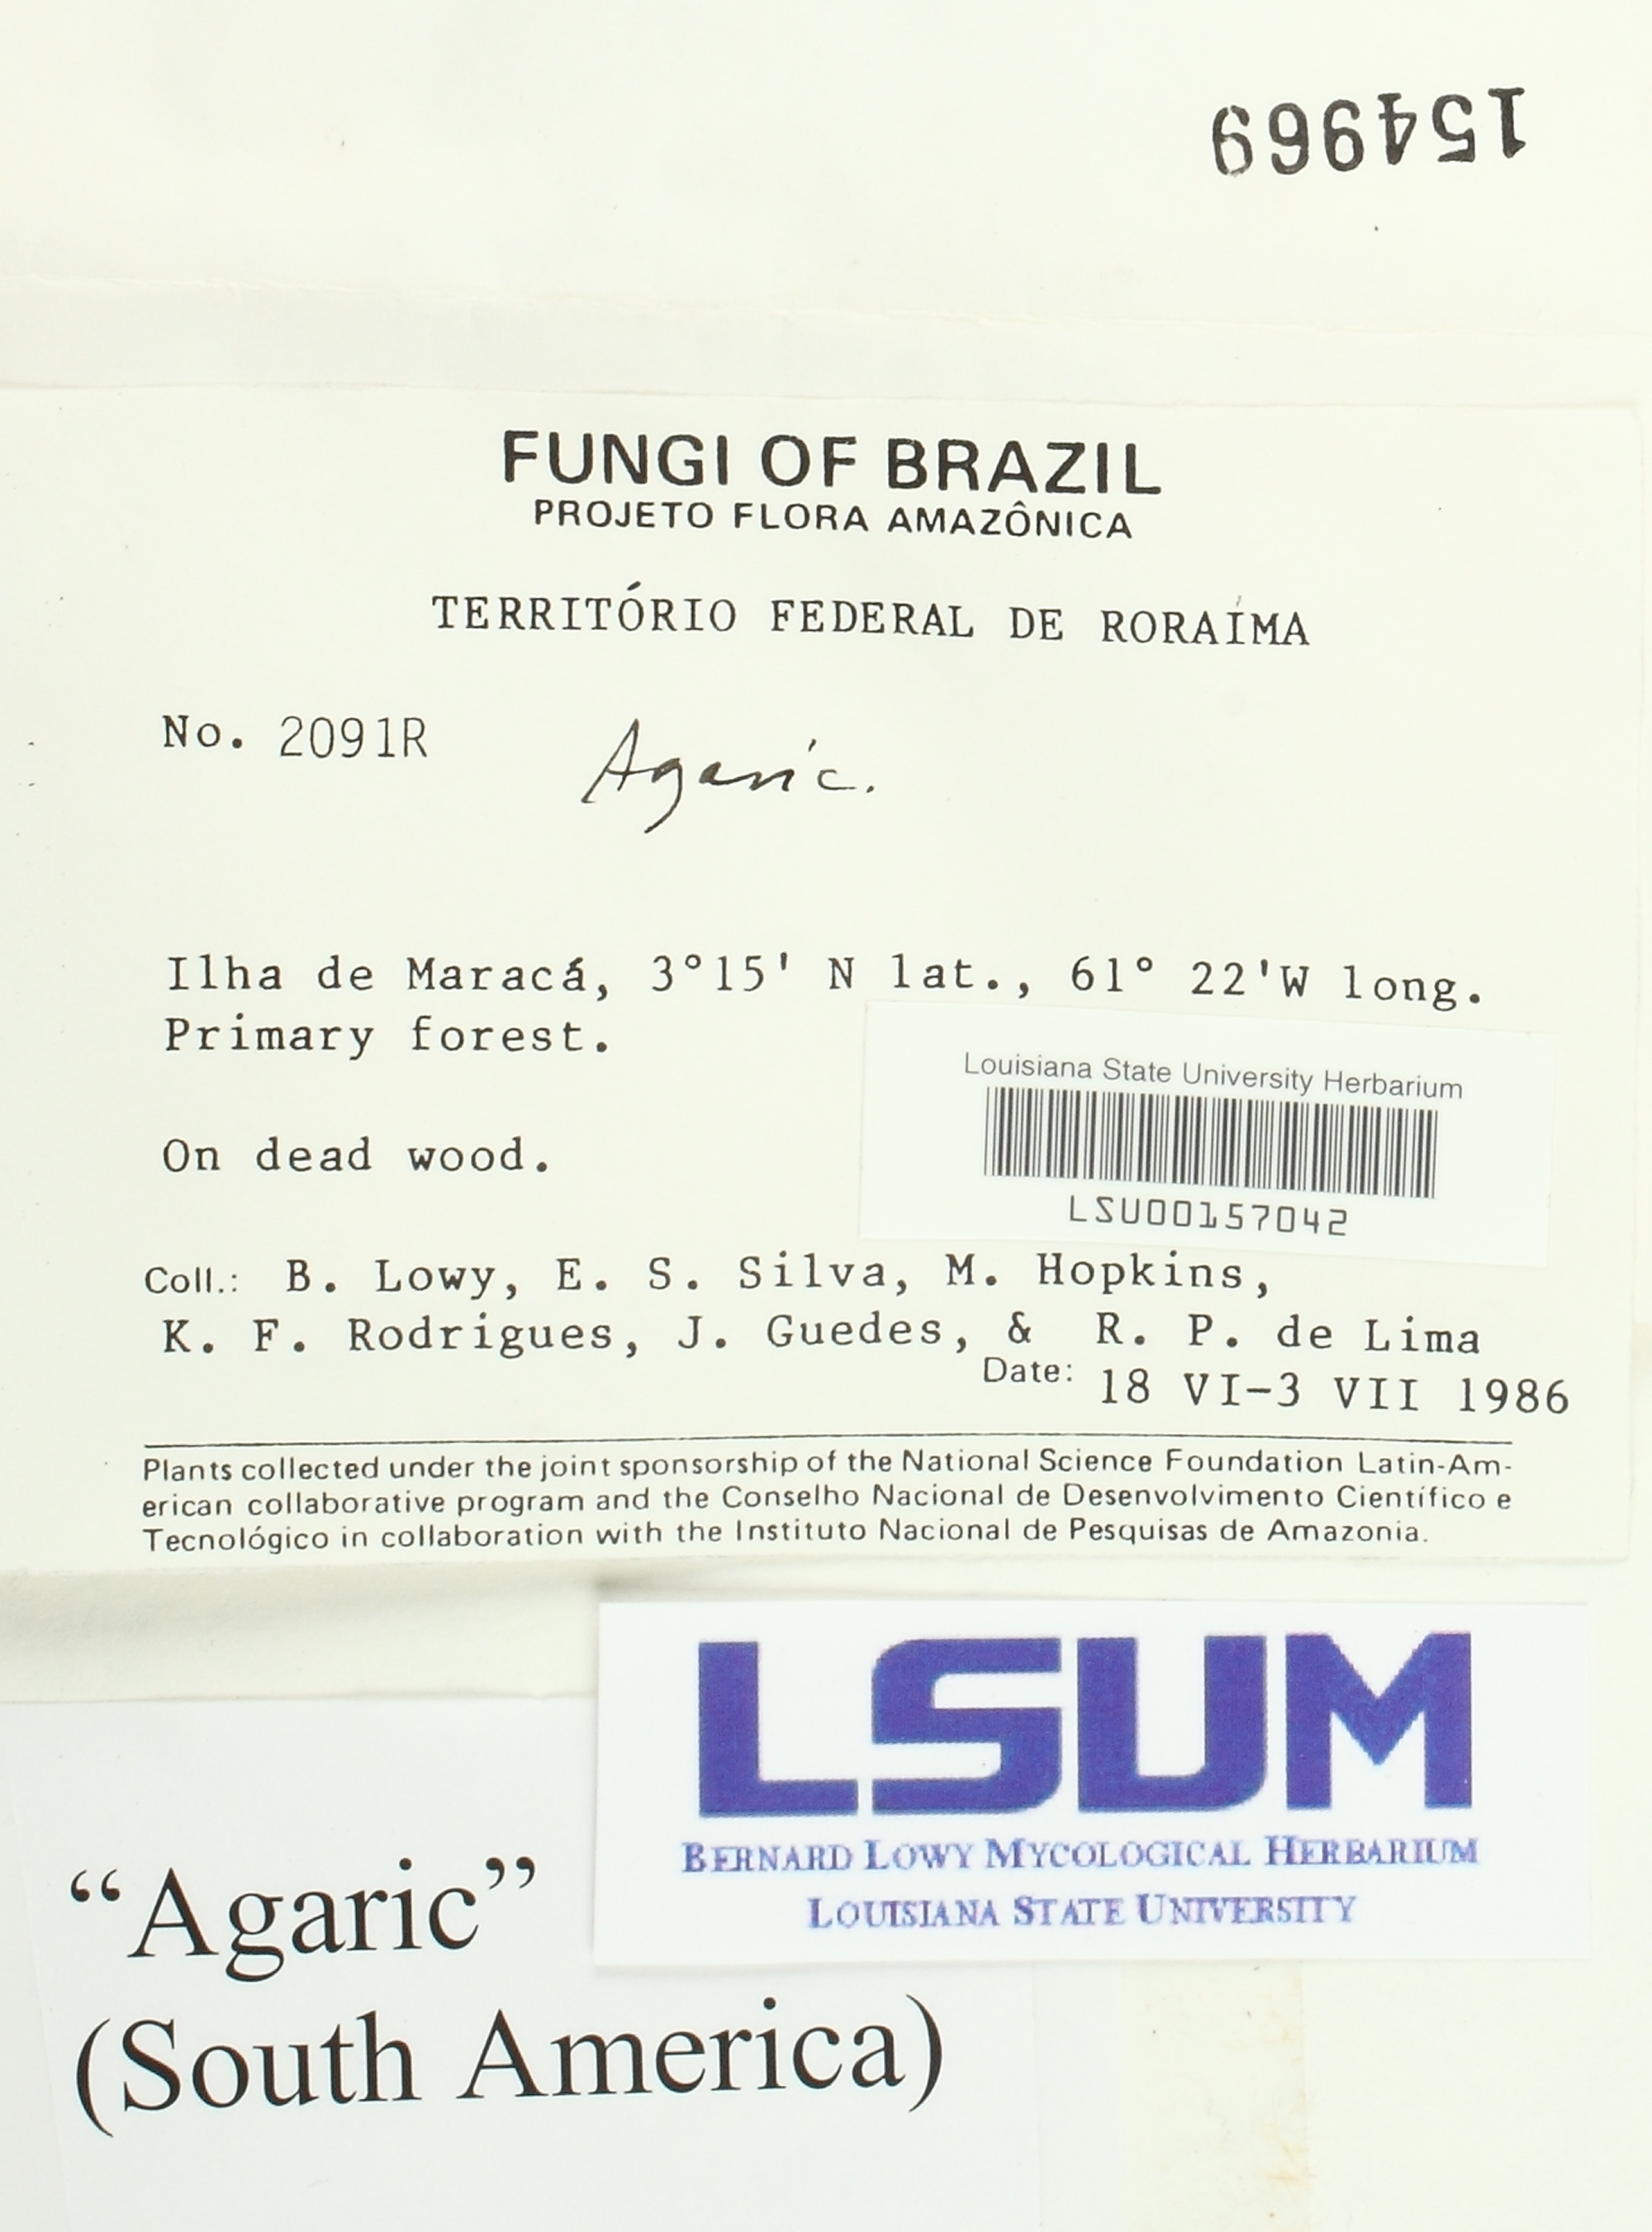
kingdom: Fungi
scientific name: Fungi
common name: Fungi
